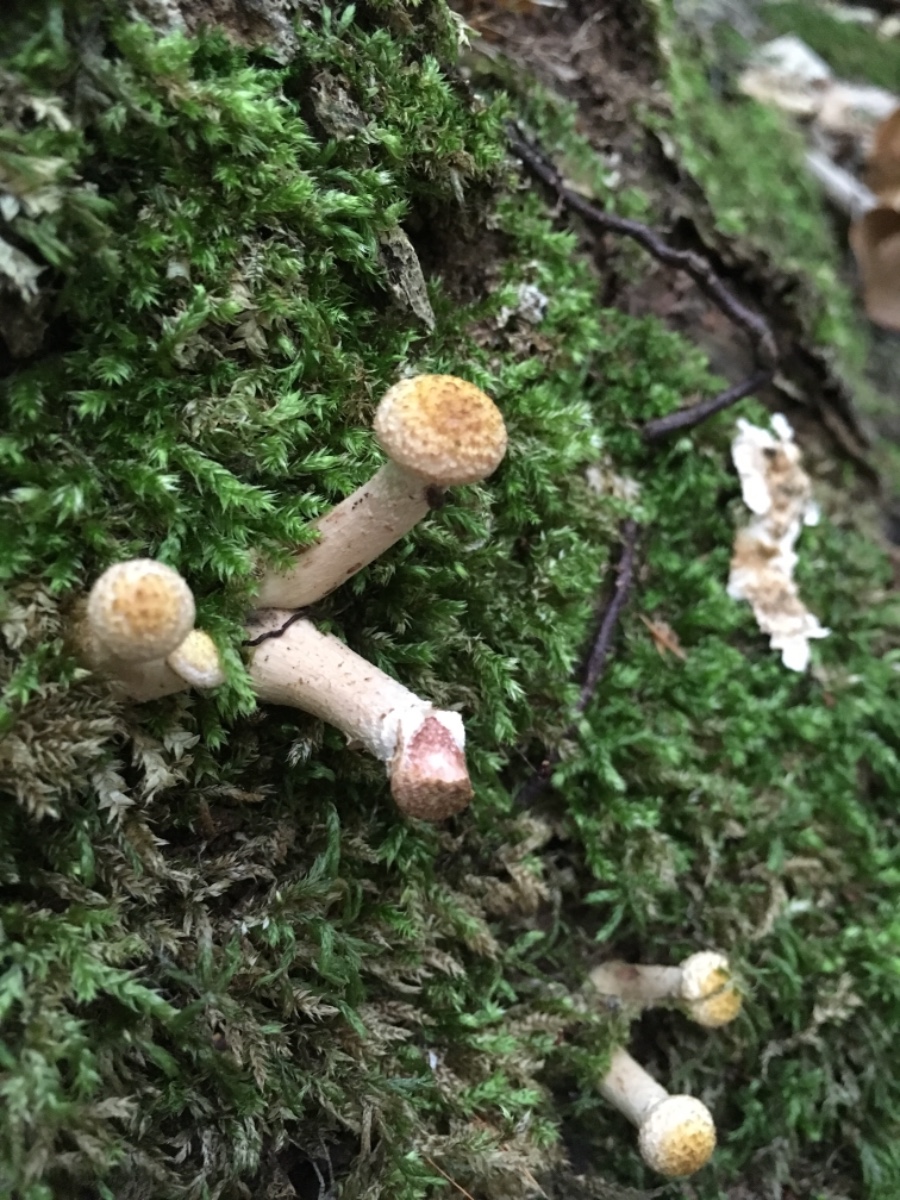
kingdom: Fungi
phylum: Basidiomycota
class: Agaricomycetes
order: Agaricales
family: Physalacriaceae
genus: Armillaria
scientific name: Armillaria
